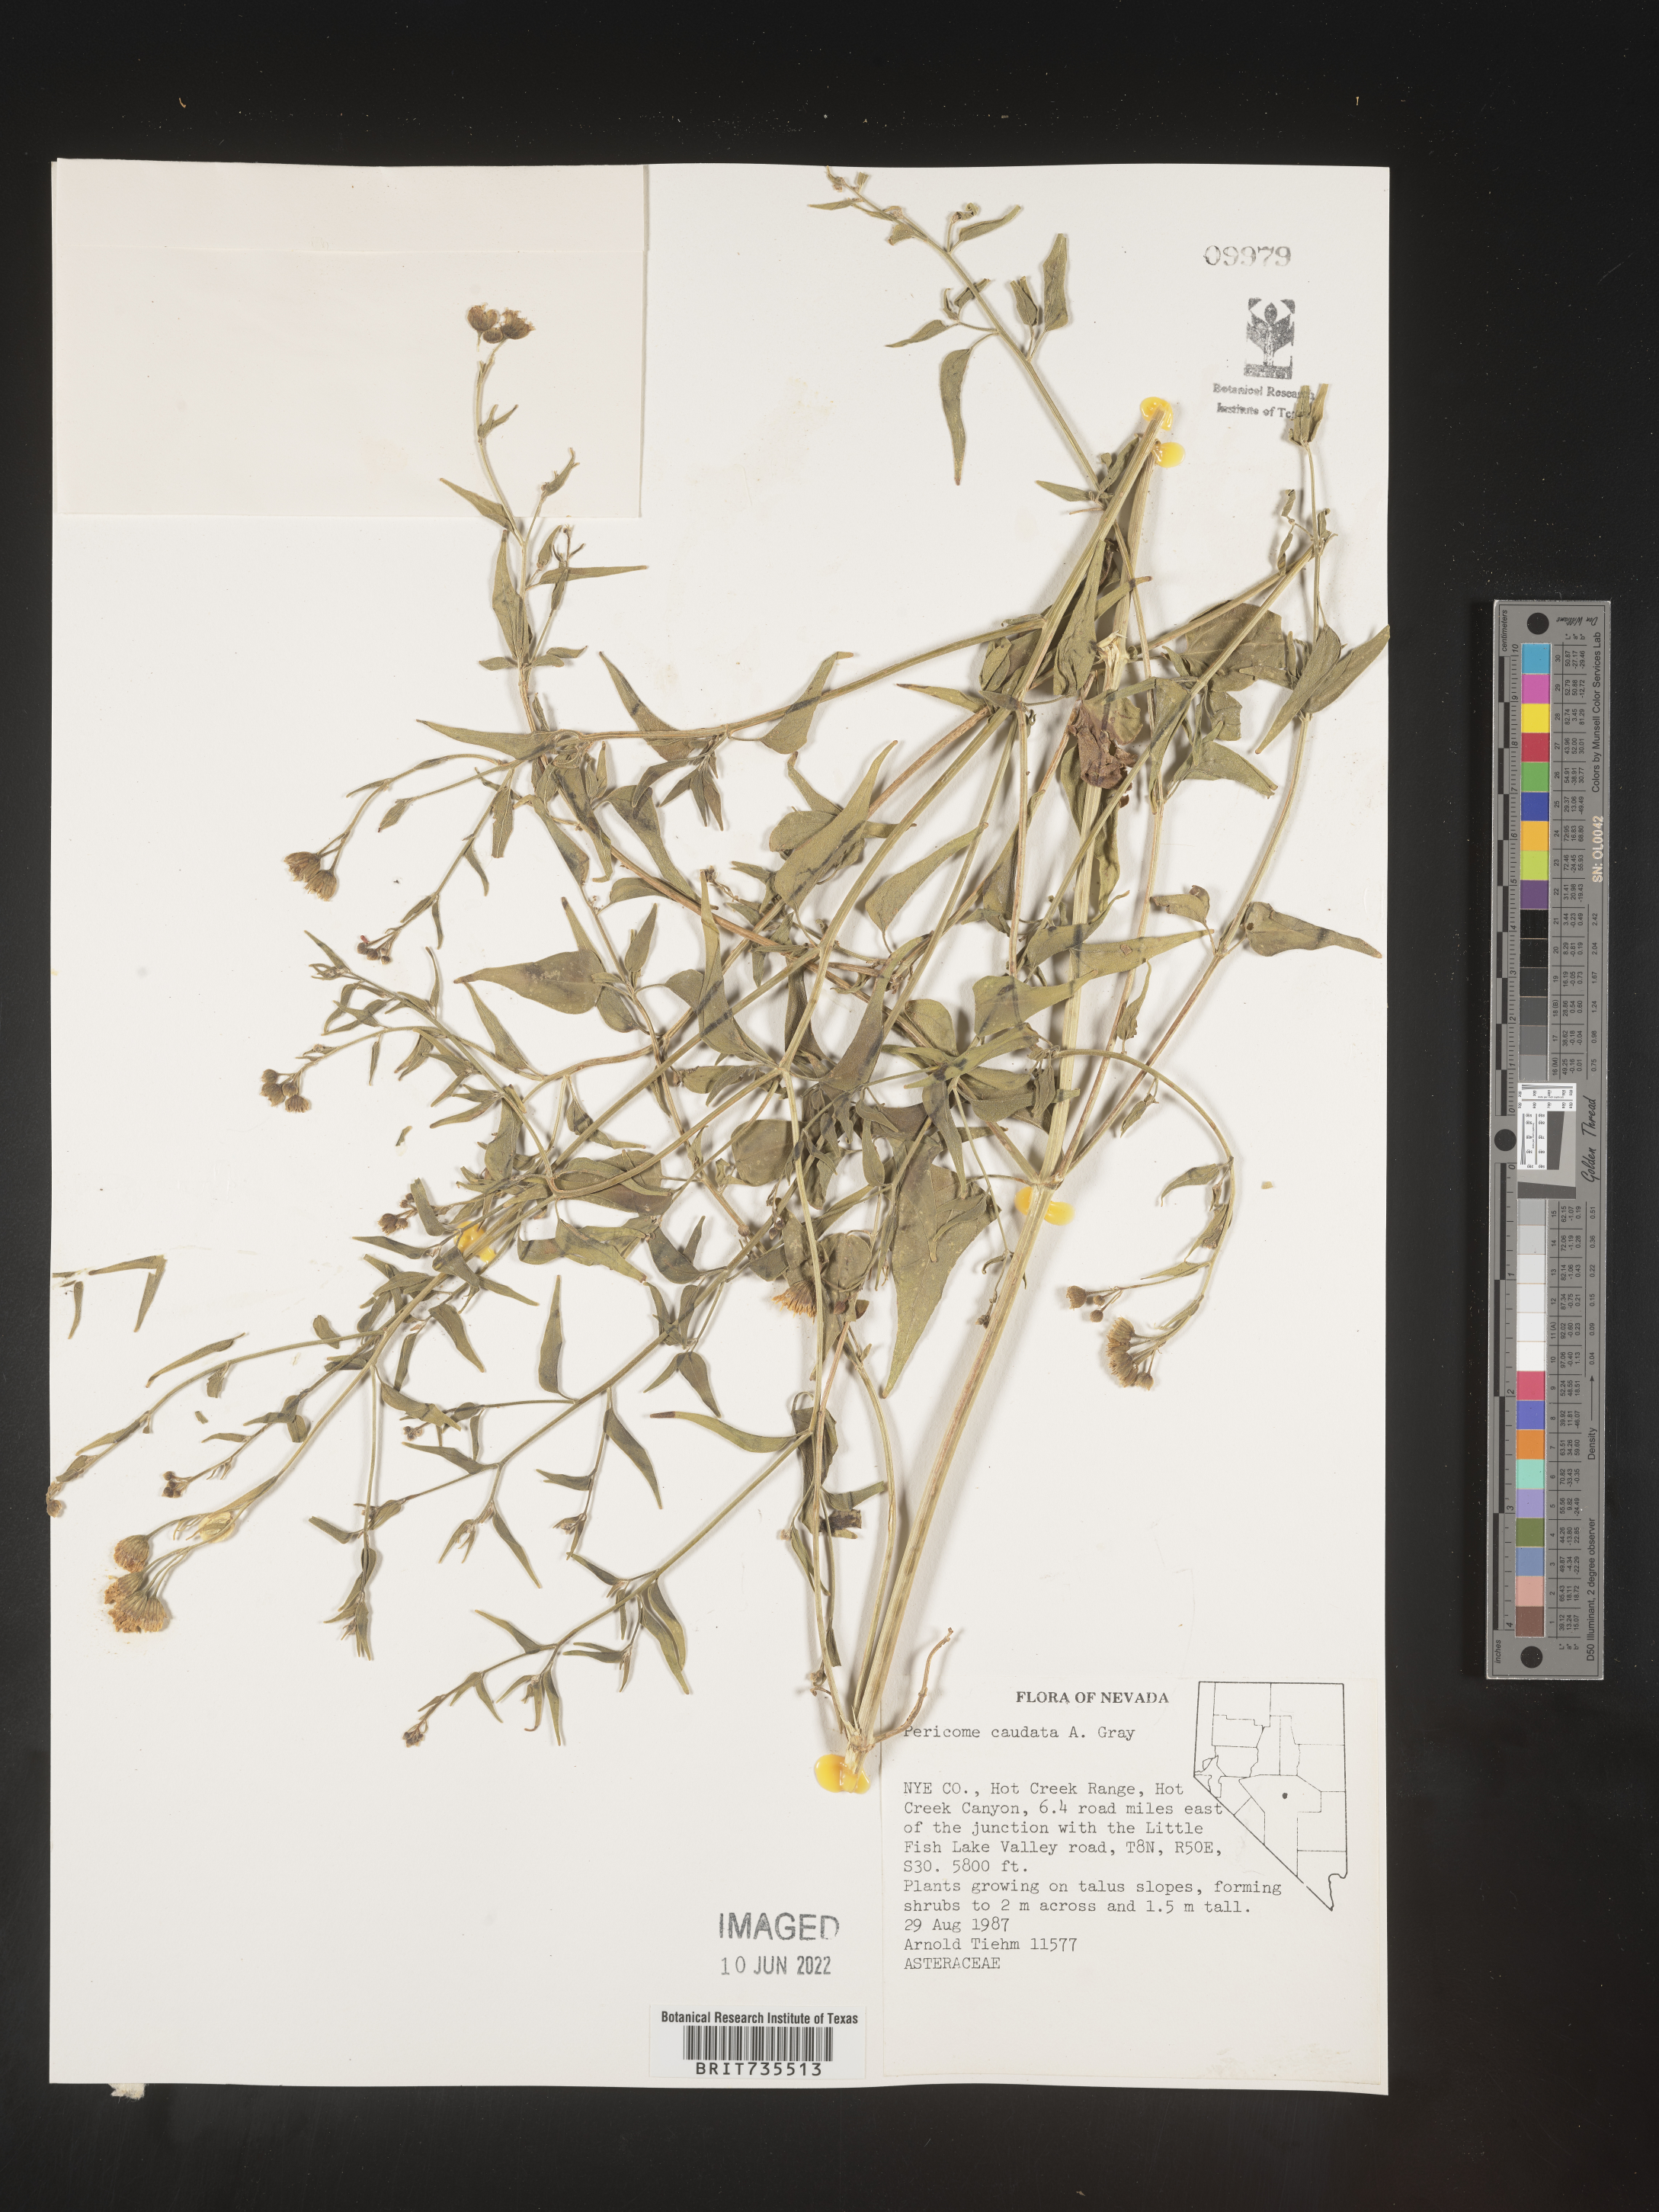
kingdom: Plantae
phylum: Tracheophyta
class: Magnoliopsida
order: Asterales
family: Asteraceae
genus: Pericome
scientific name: Pericome
